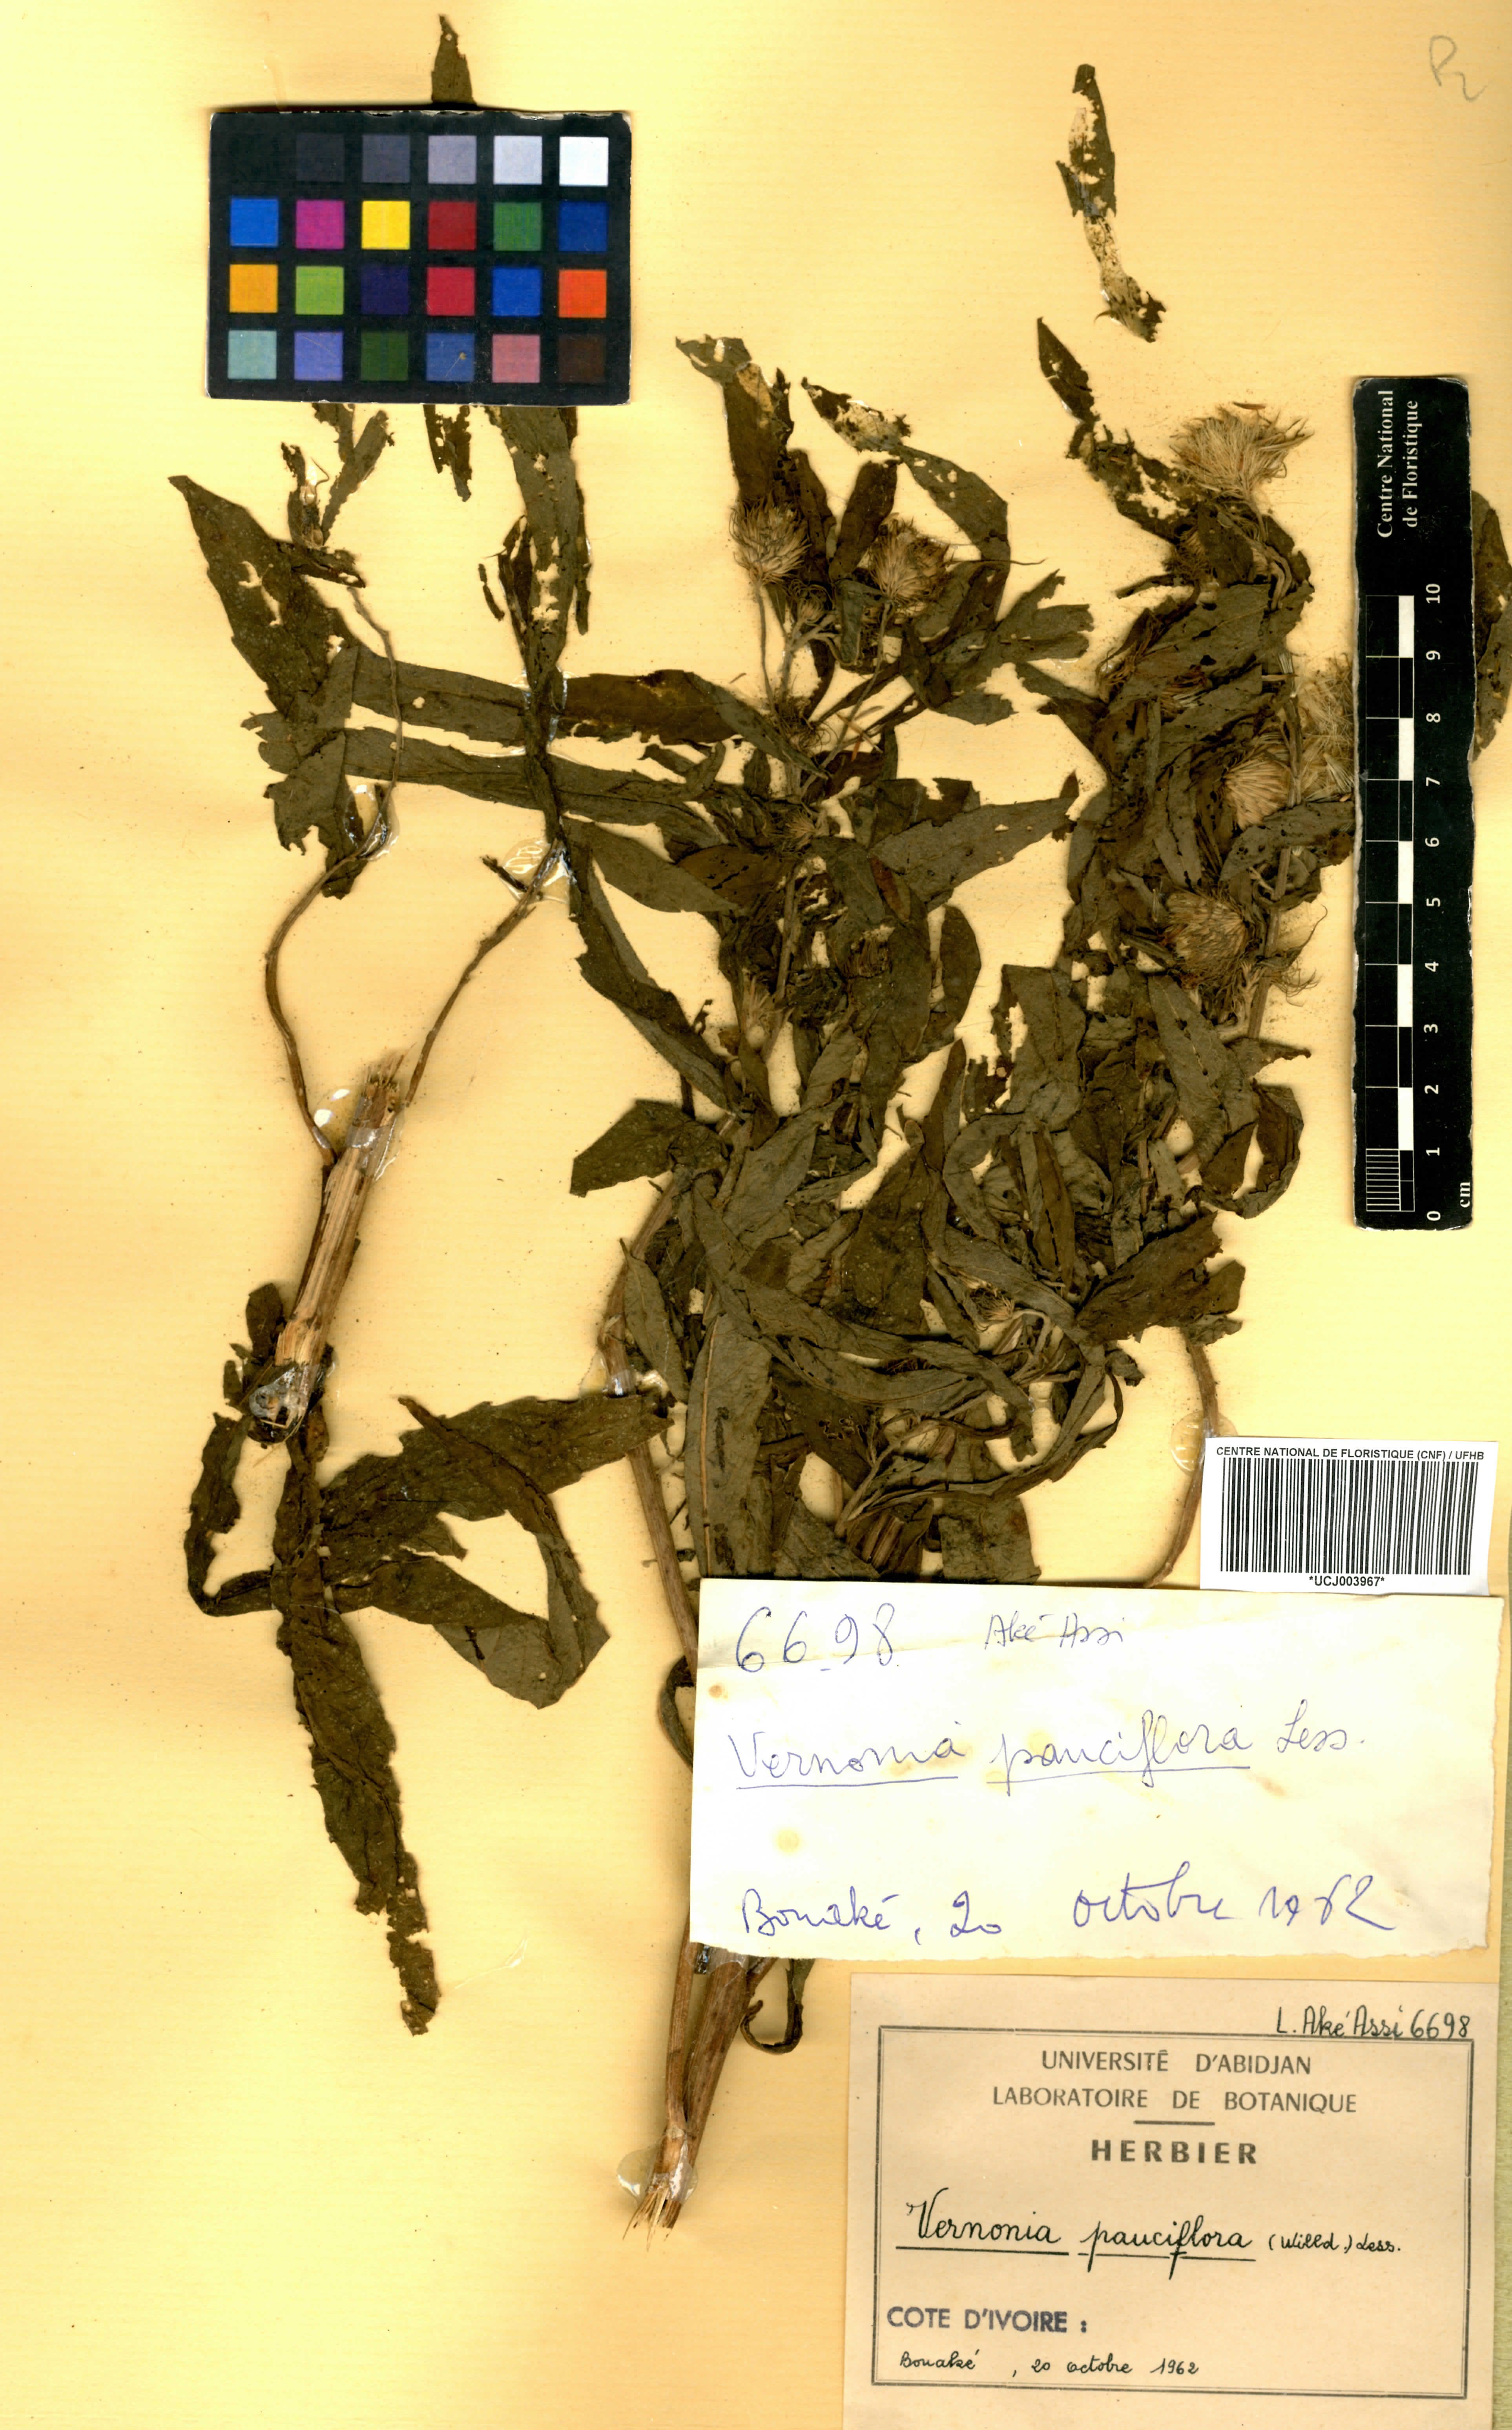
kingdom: Plantae
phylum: Tracheophyta
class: Magnoliopsida
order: Asterales
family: Asteraceae
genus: Vernonia
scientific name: Vernonia galamensis
